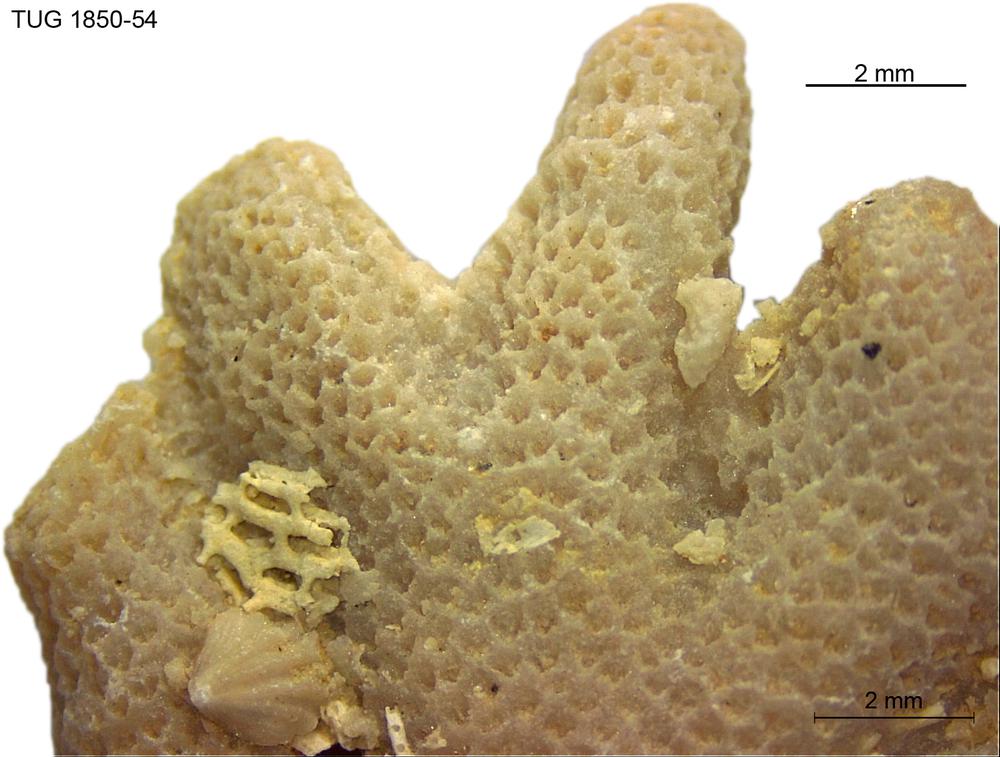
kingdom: Animalia
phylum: Cnidaria
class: Anthozoa
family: Coenitidae
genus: Coenites
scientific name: Coenites juniperinus
